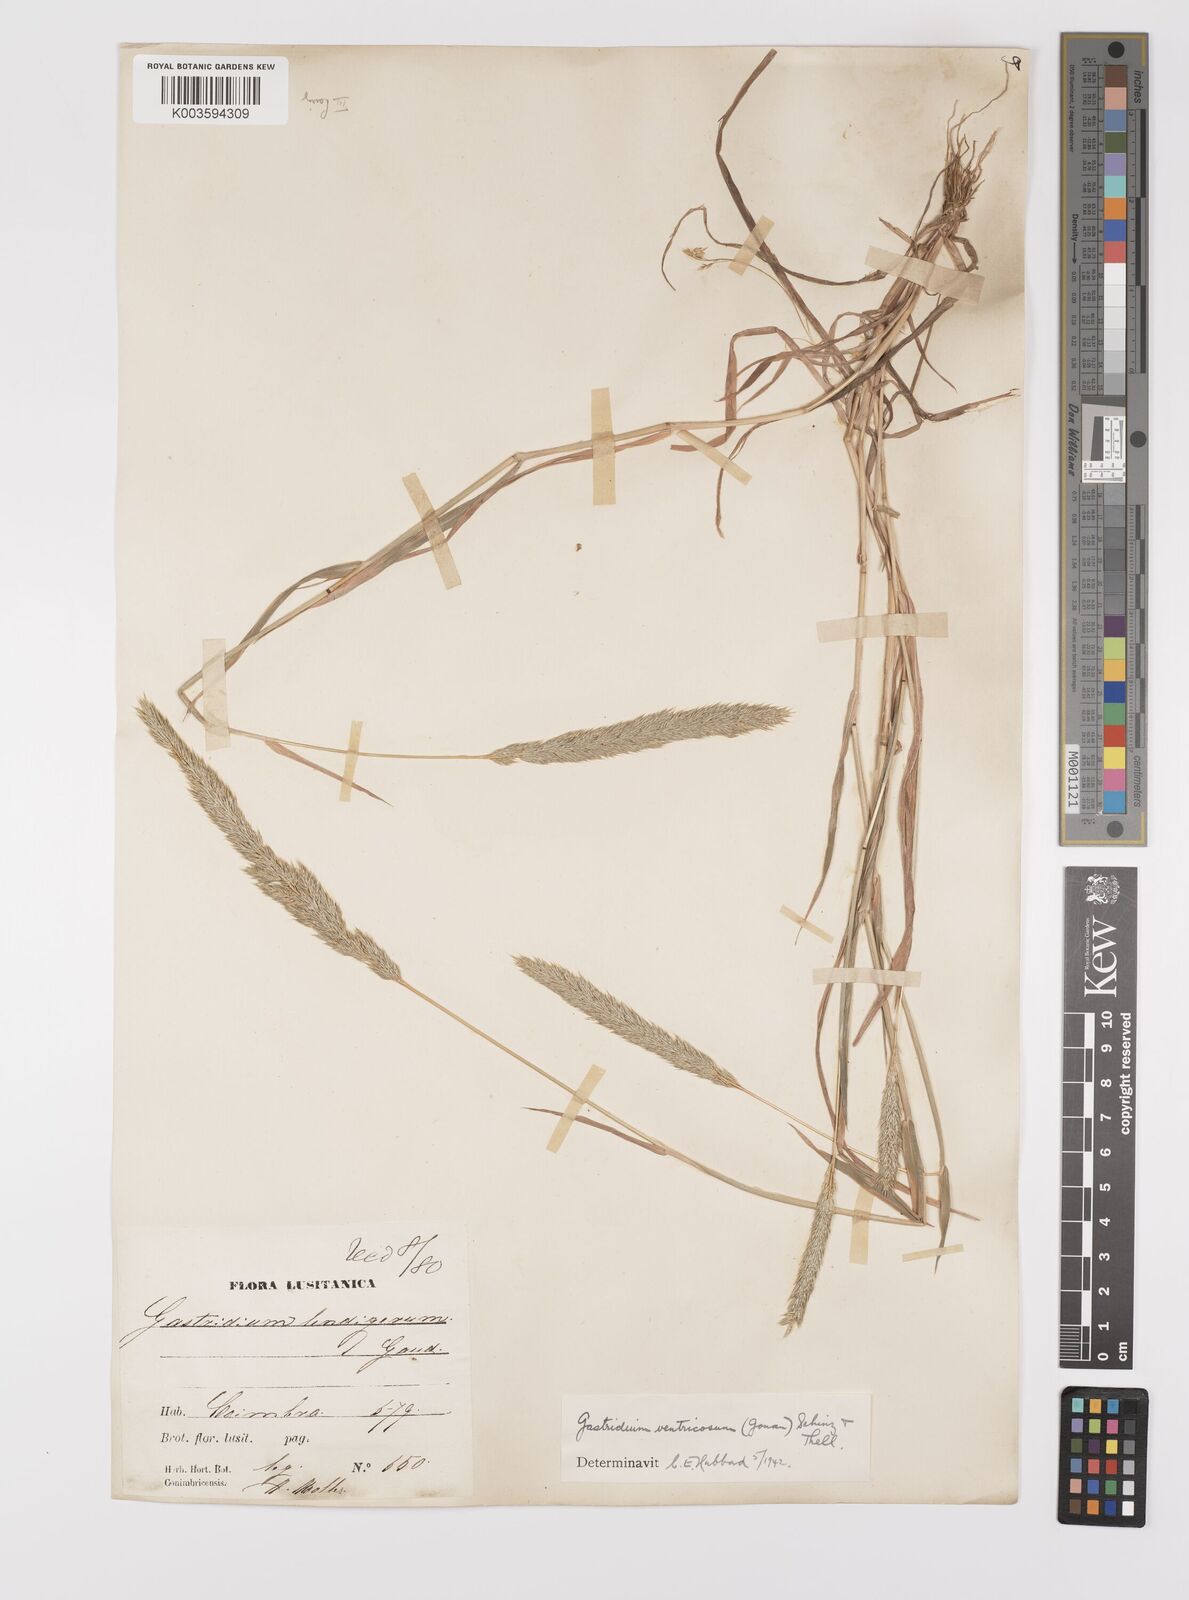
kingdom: Plantae
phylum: Tracheophyta
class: Liliopsida
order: Poales
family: Poaceae
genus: Gastridium
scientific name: Gastridium ventricosum
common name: Nit-grass
